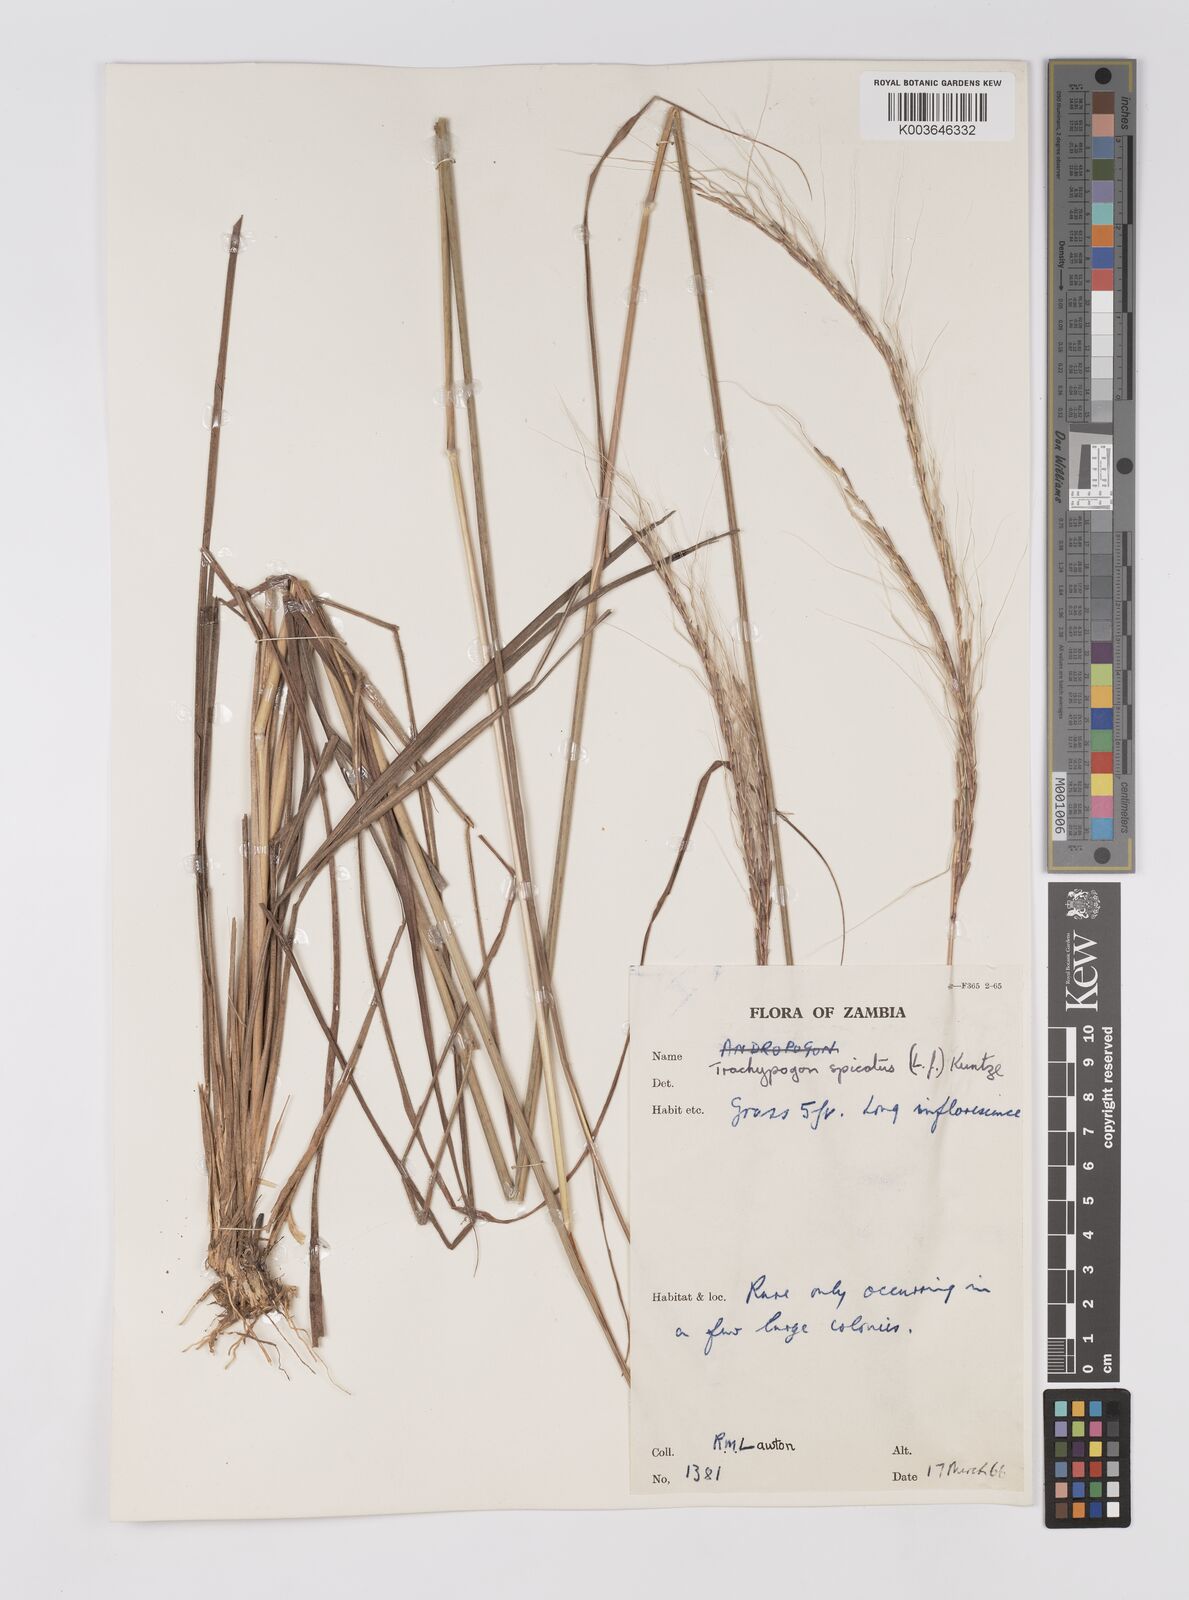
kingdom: Plantae
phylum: Tracheophyta
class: Liliopsida
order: Poales
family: Poaceae
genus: Trachypogon
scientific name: Trachypogon spicatus
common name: Crinkle-awn
